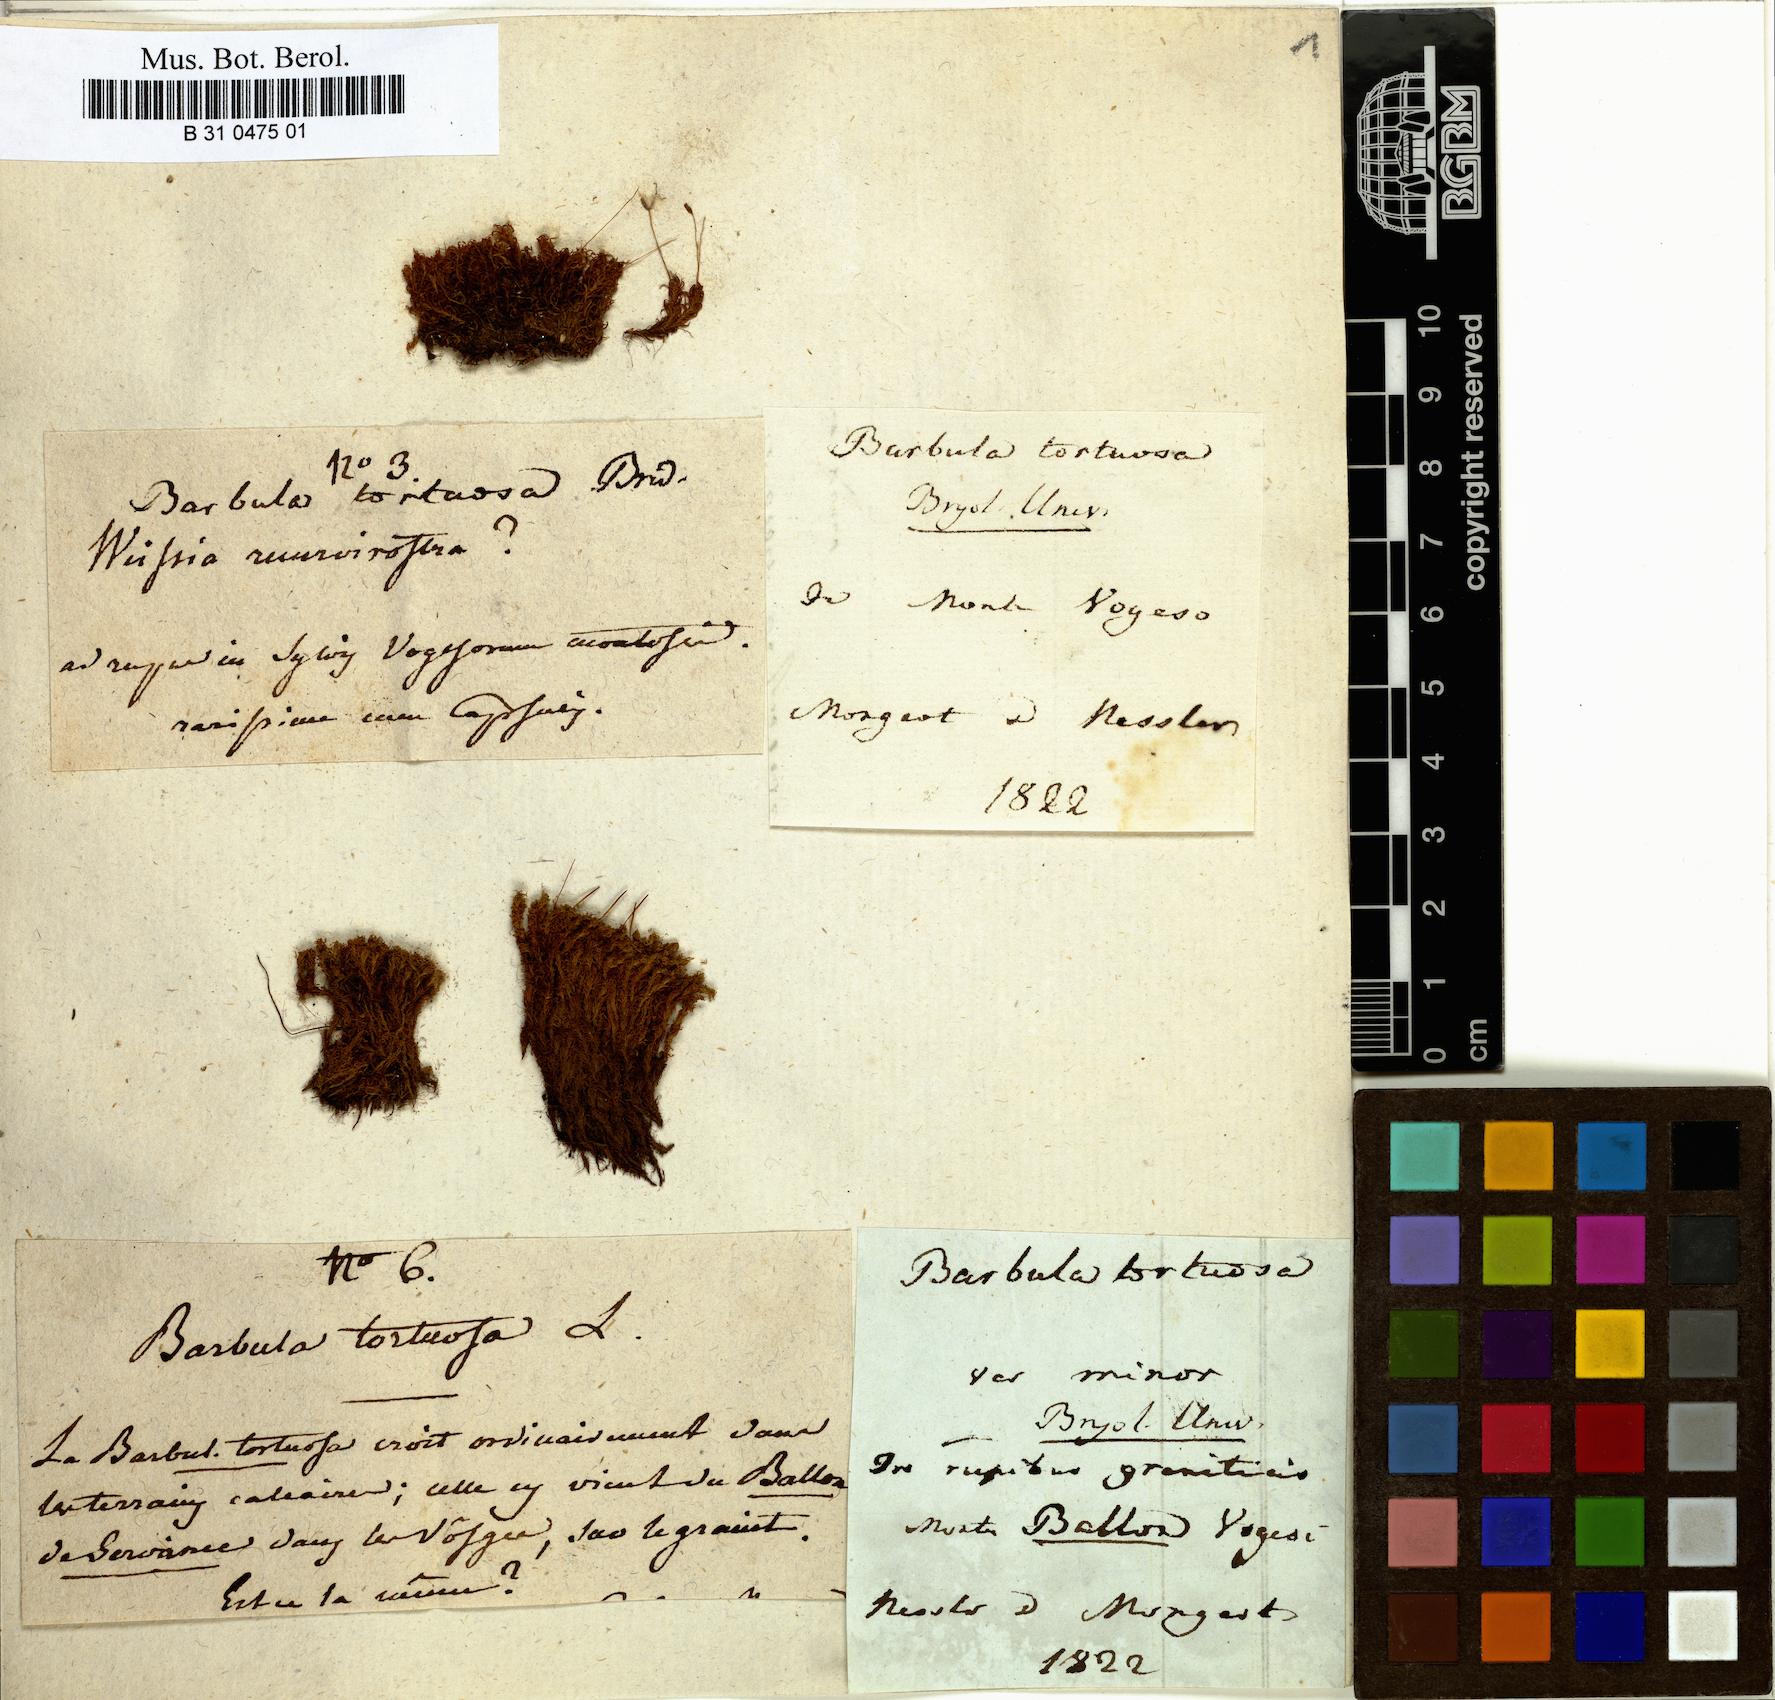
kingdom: Plantae
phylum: Bryophyta
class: Bryopsida
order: Pottiales
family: Pottiaceae
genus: Tortella
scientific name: Tortella tortuosa
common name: Frizzled crisp moss
